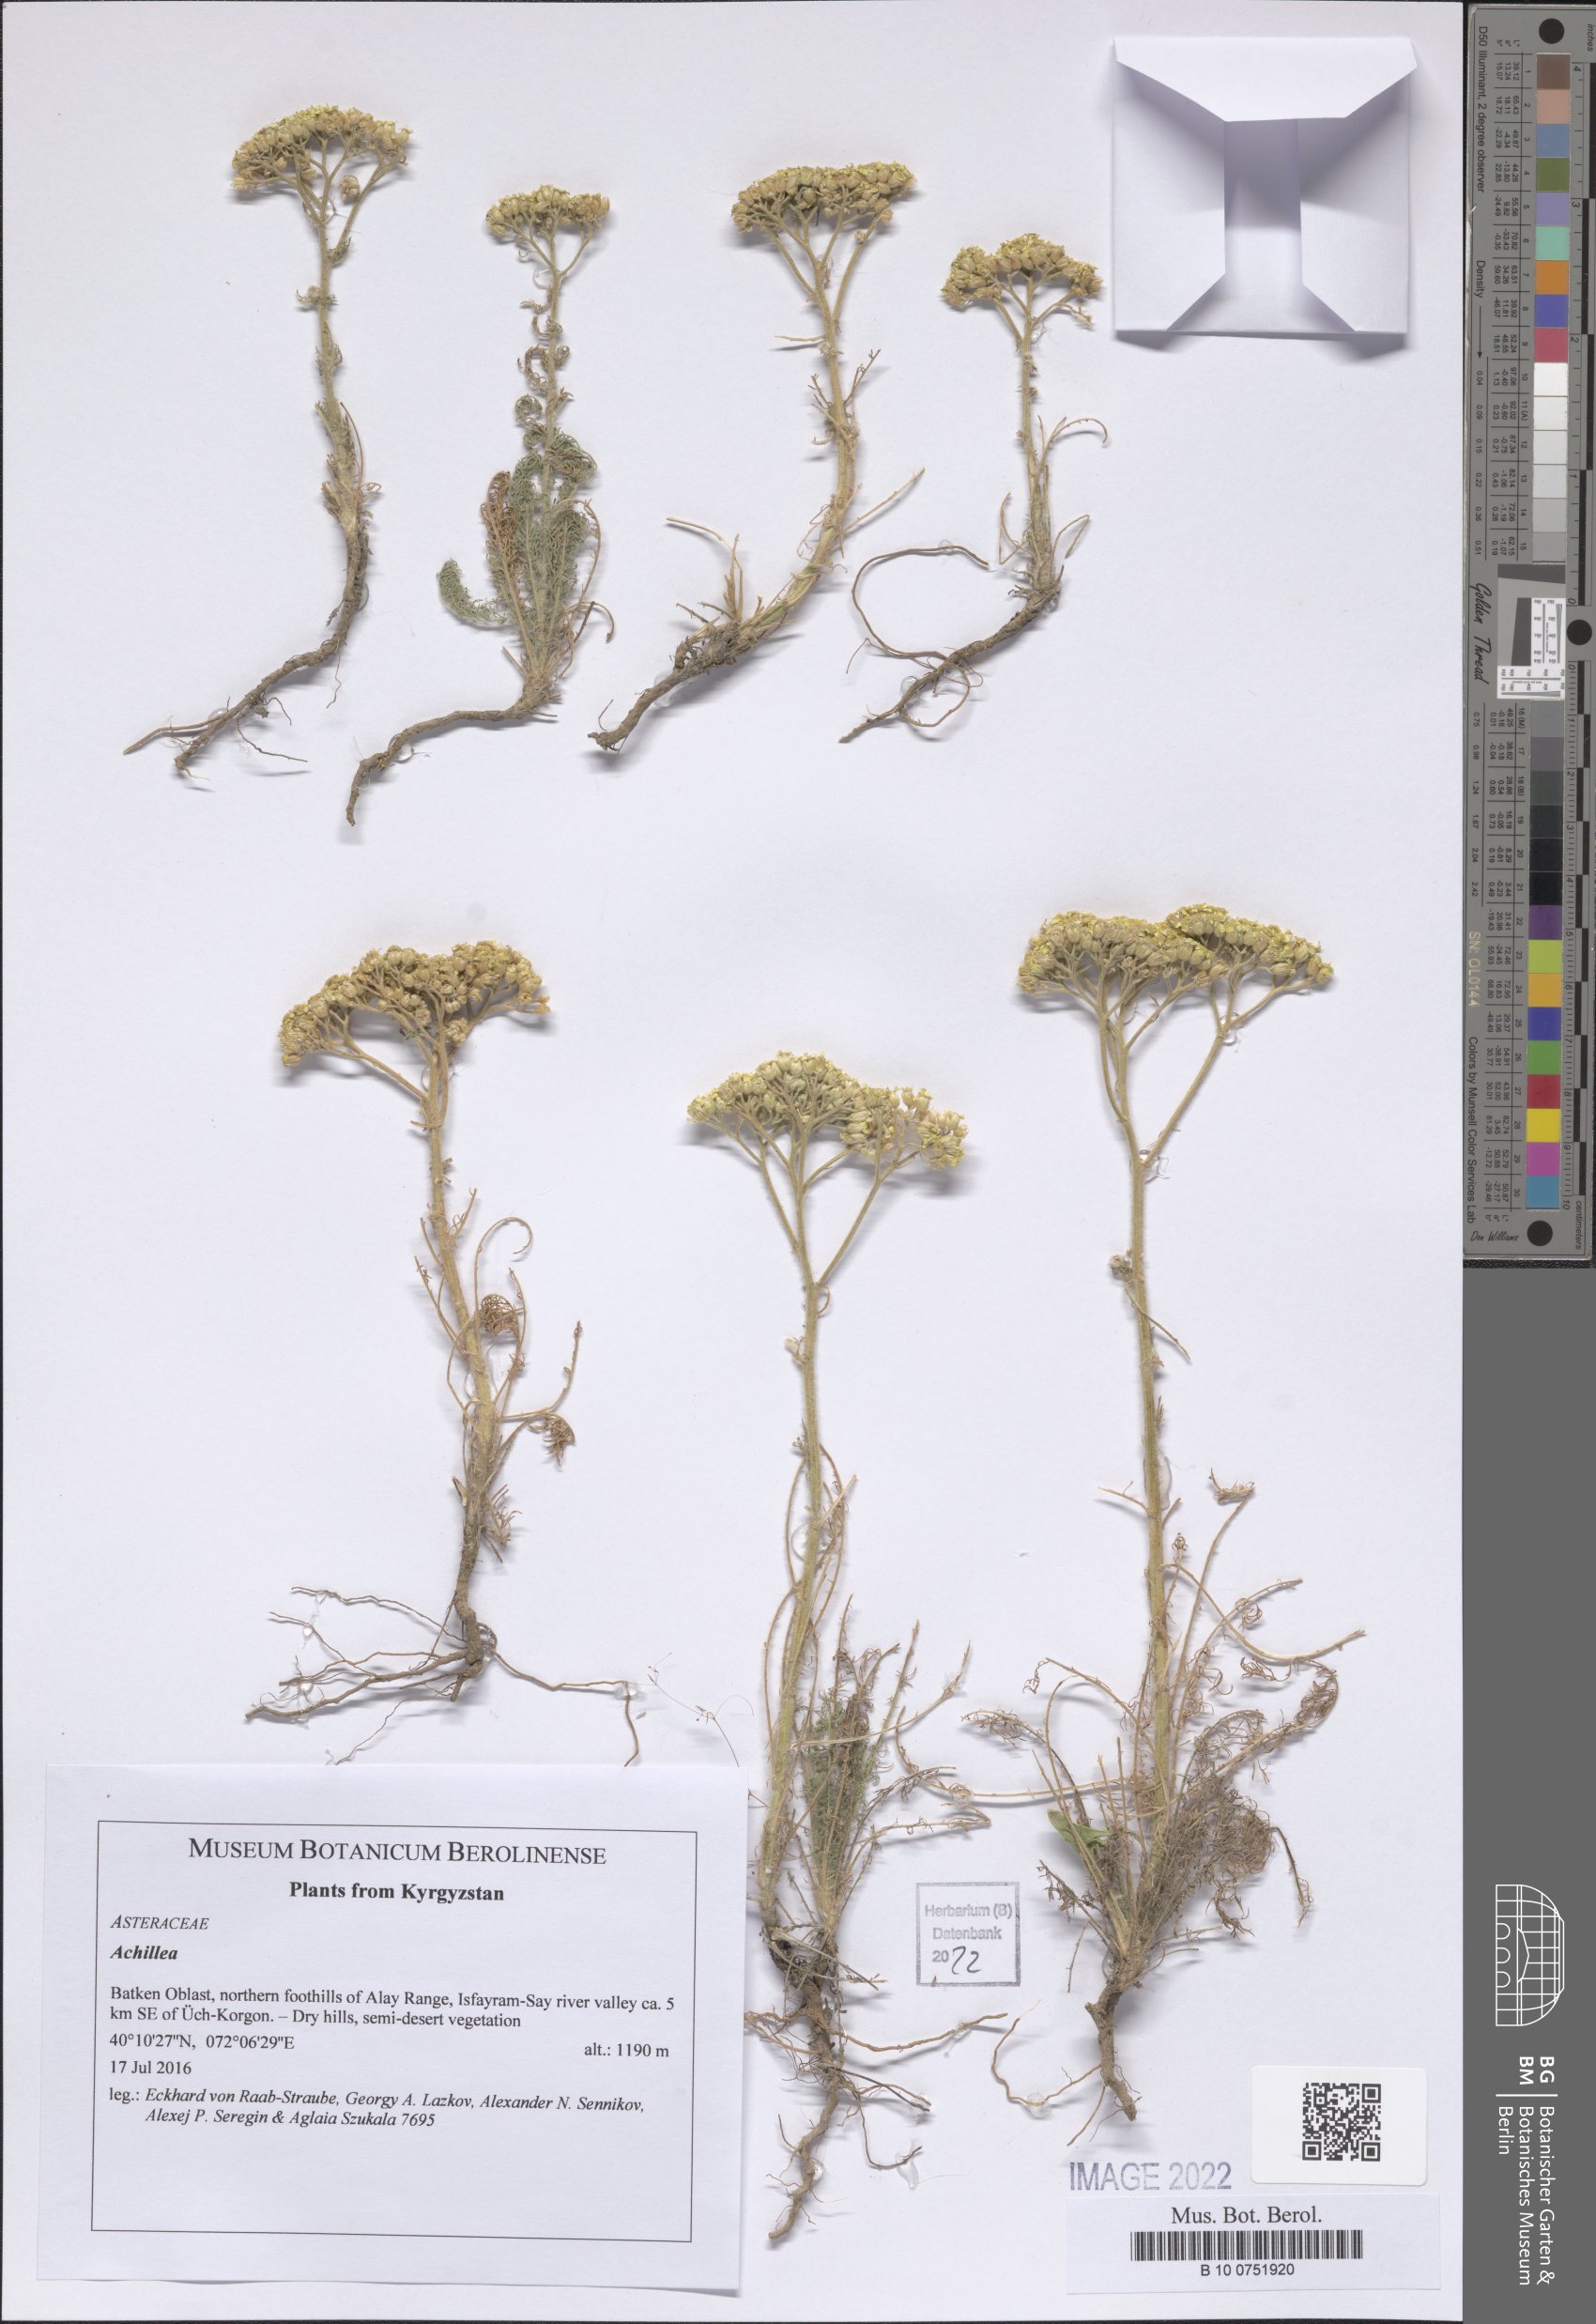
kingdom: Plantae
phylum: Tracheophyta
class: Magnoliopsida
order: Asterales
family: Asteraceae
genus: Achillea
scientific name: Achillea
